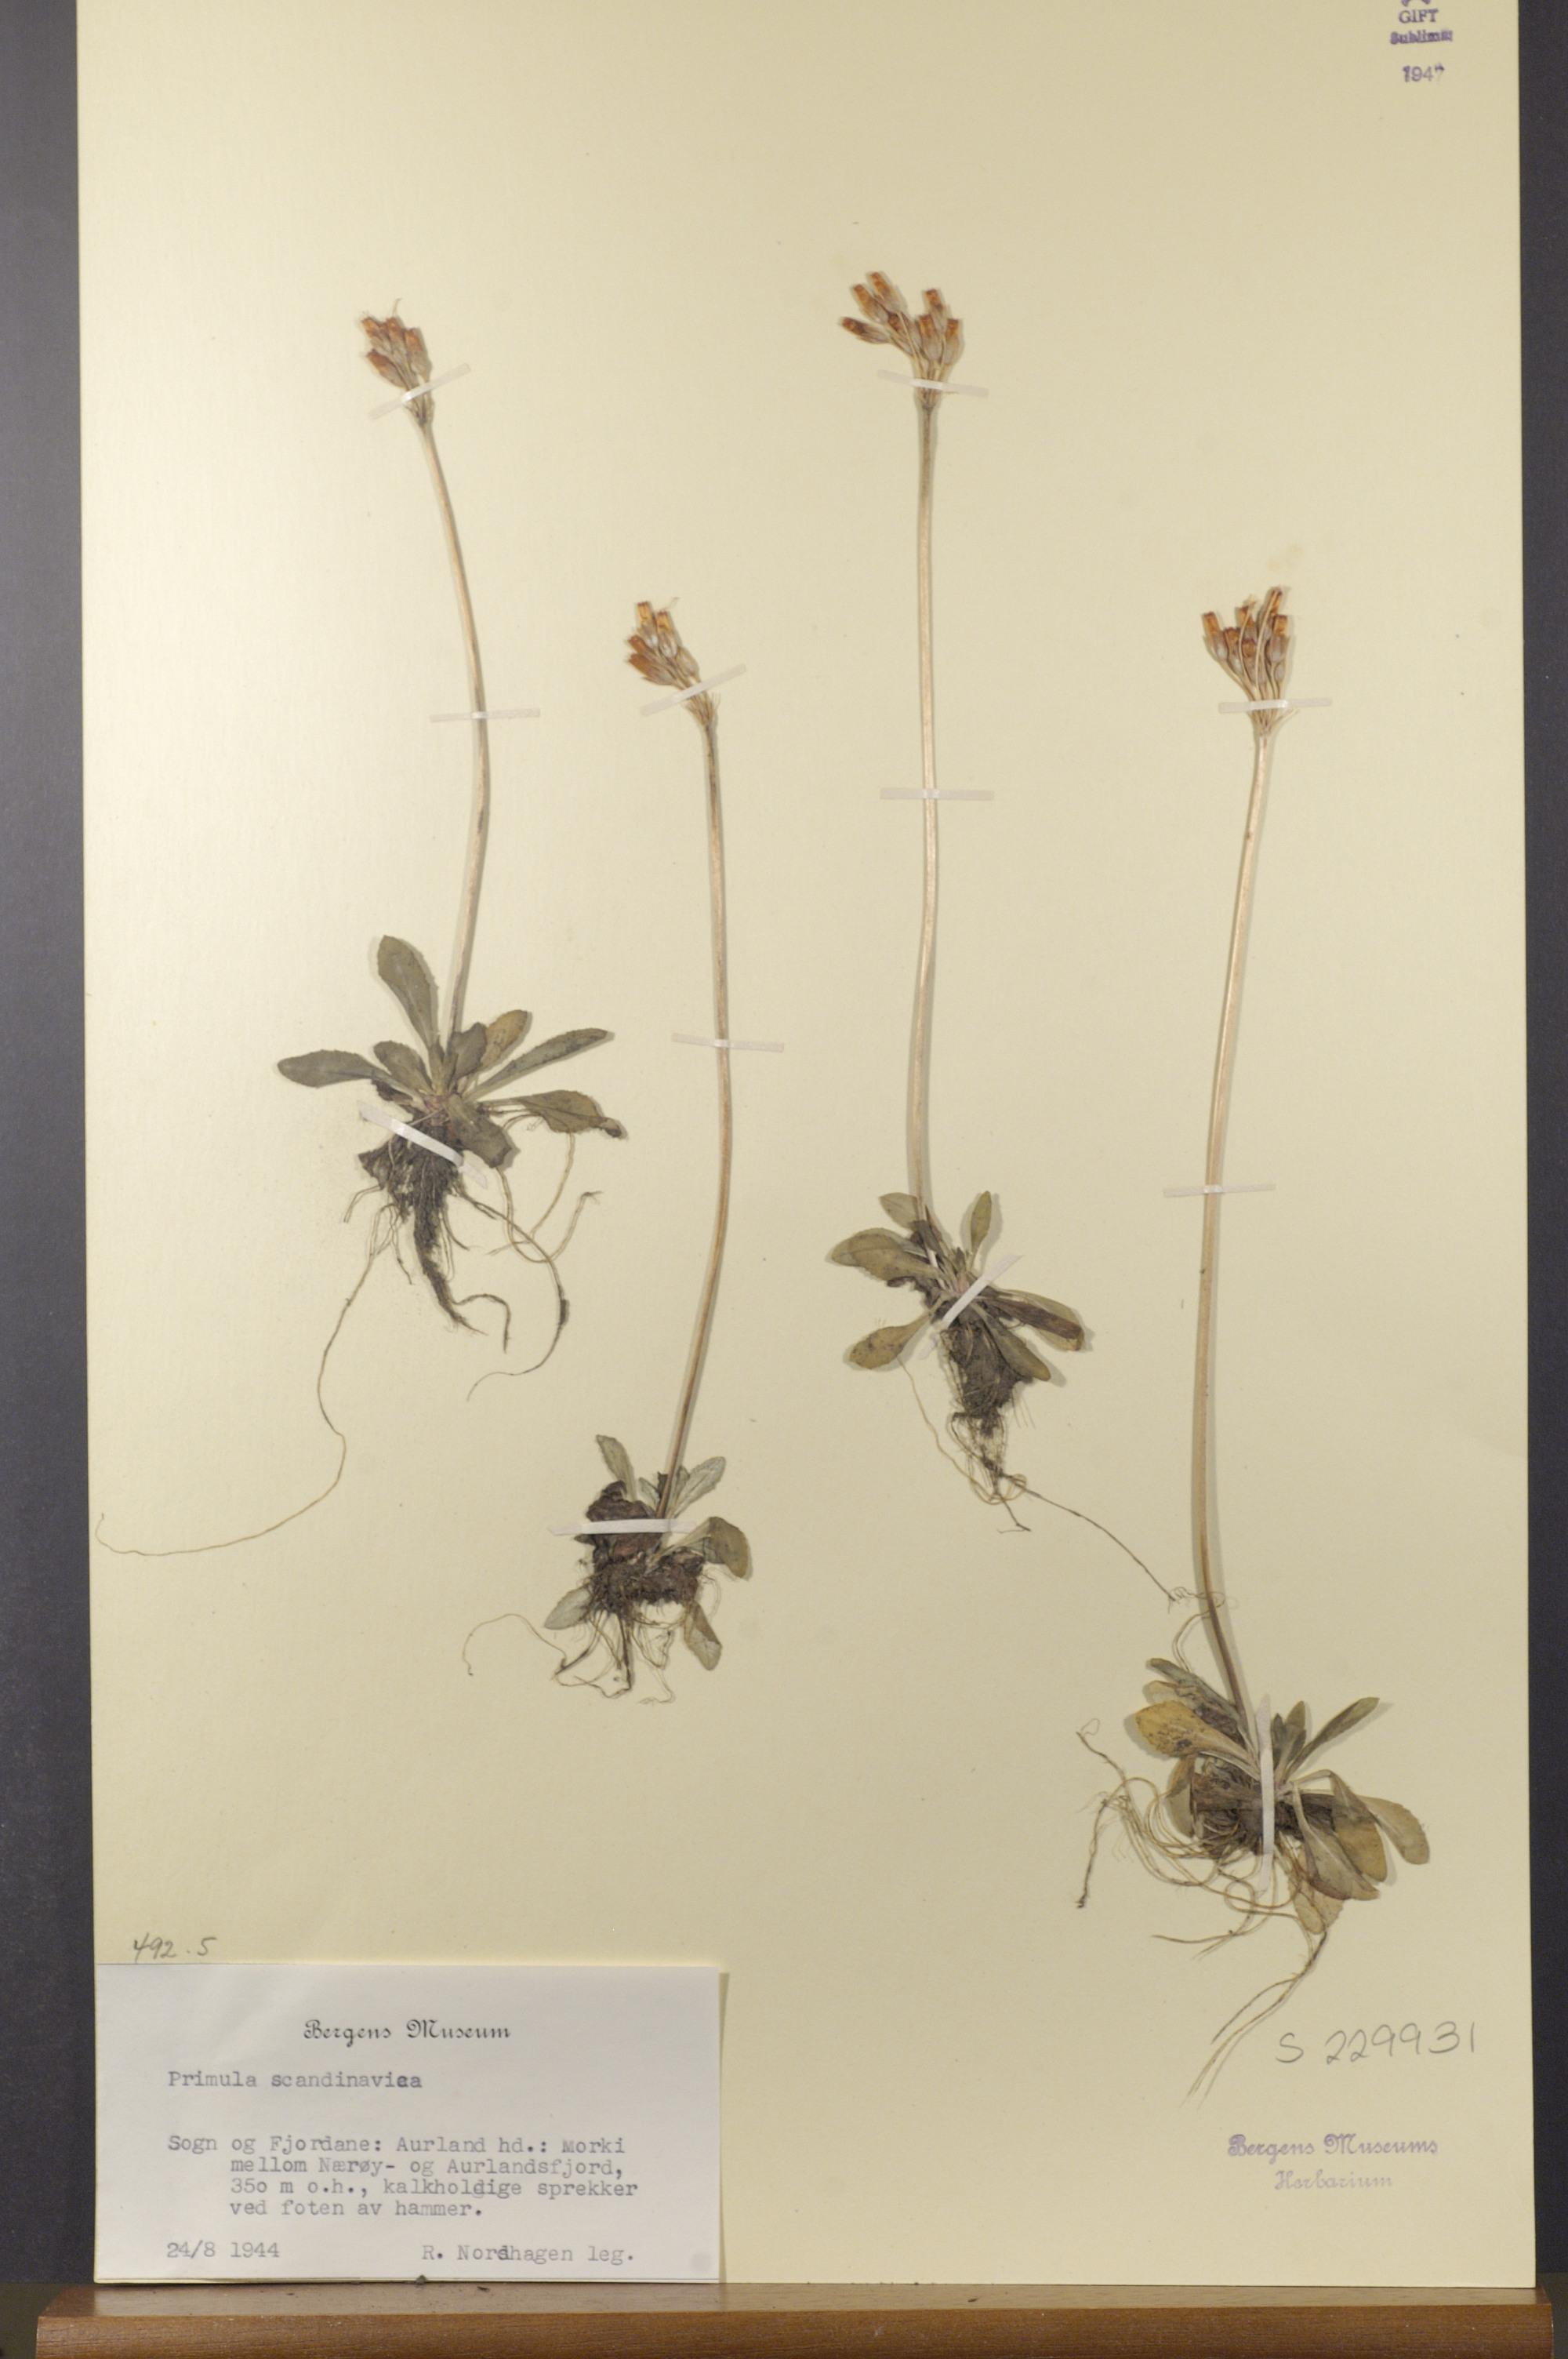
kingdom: Plantae
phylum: Tracheophyta
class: Magnoliopsida
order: Ericales
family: Primulaceae
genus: Primula
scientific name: Primula scandinavica
